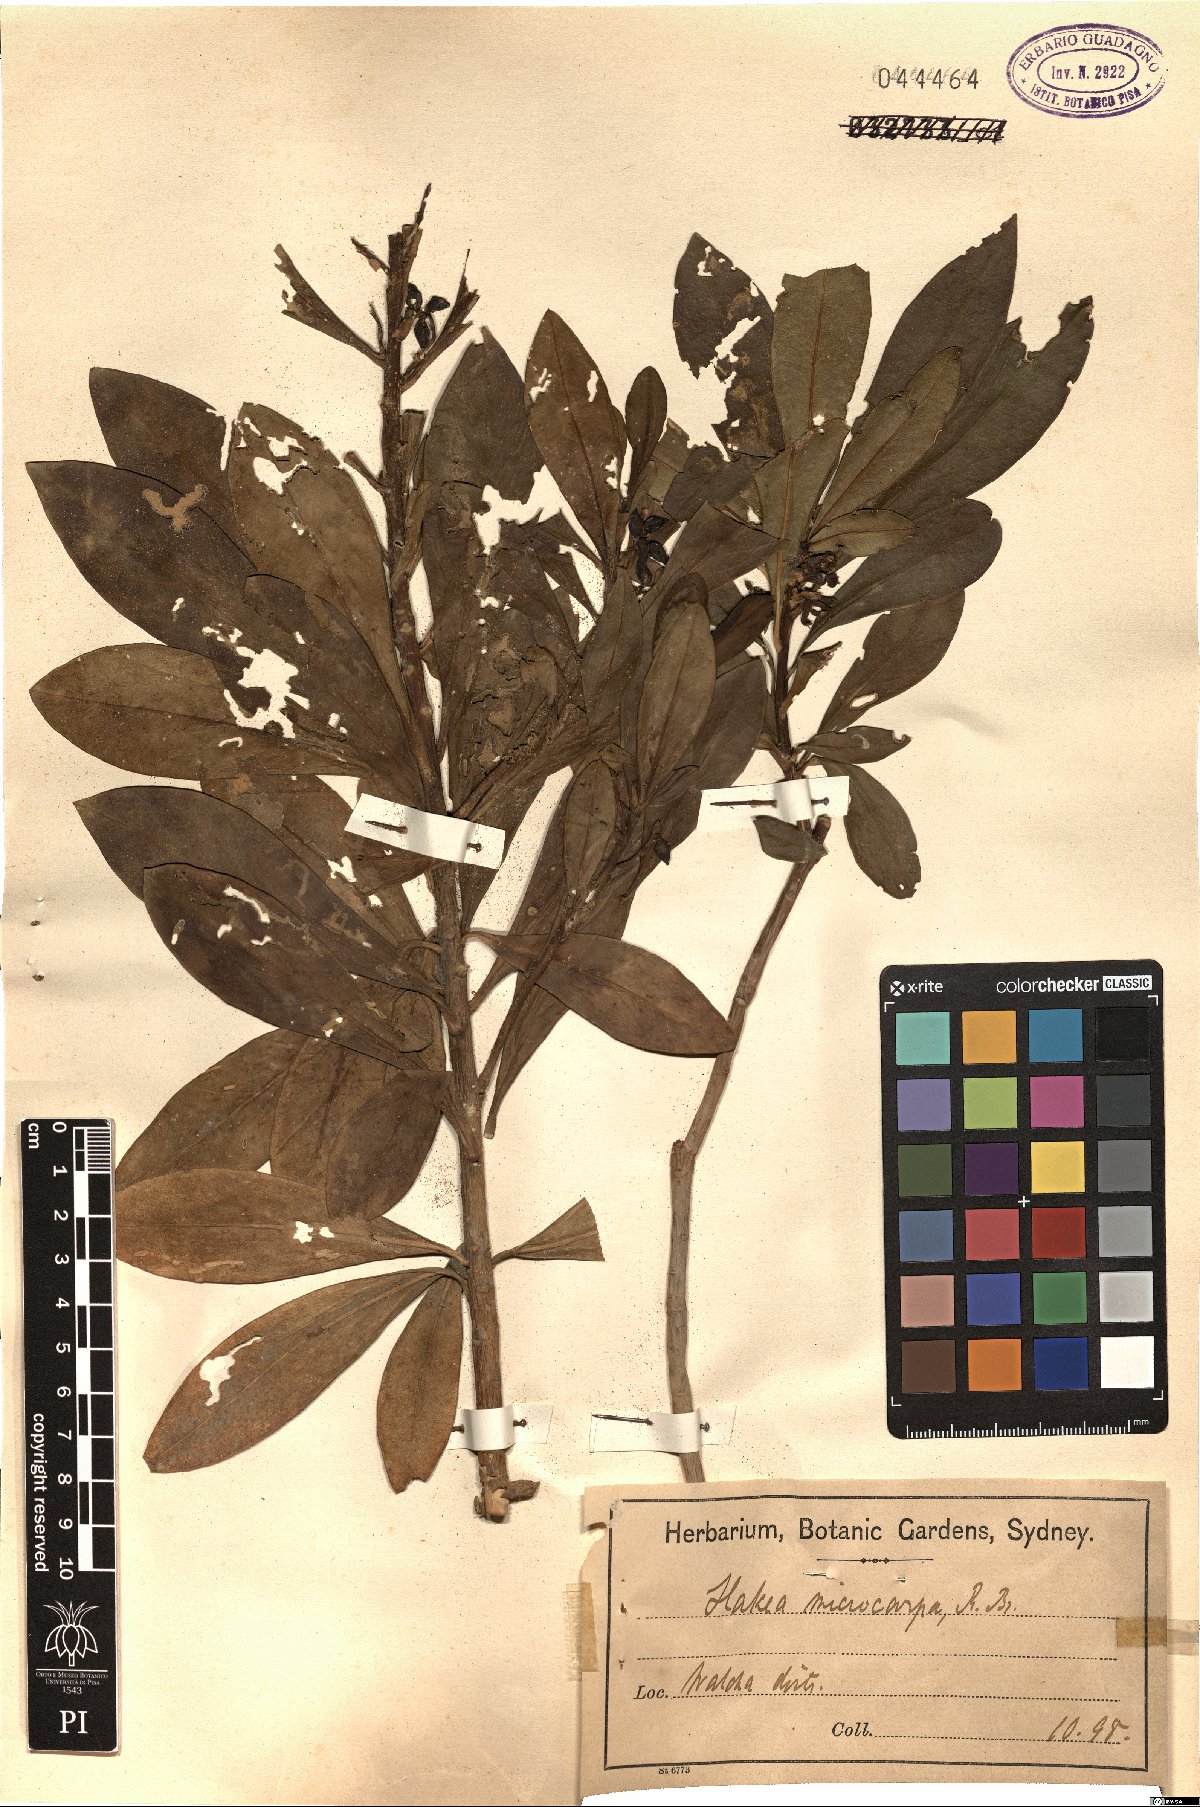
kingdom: Plantae
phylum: Tracheophyta
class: Magnoliopsida
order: Proteales
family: Proteaceae
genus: Hakea
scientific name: Hakea microcarpa
